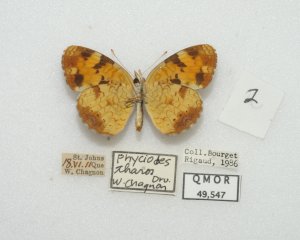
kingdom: Animalia
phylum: Arthropoda
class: Insecta
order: Lepidoptera
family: Nymphalidae
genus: Phyciodes
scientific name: Phyciodes tharos
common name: Northern Crescent
